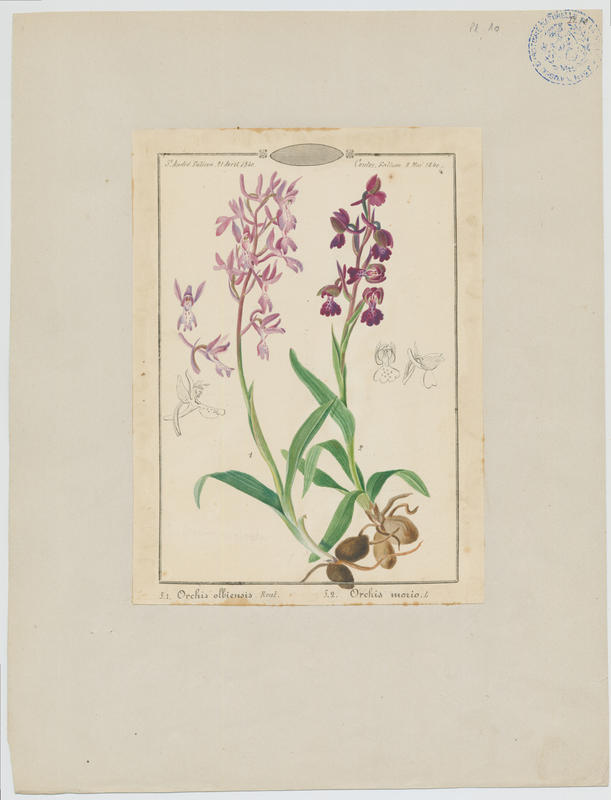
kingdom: Plantae
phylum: Tracheophyta
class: Liliopsida
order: Asparagales
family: Orchidaceae
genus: Anacamptis
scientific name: Anacamptis morio
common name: Green-winged orchid
